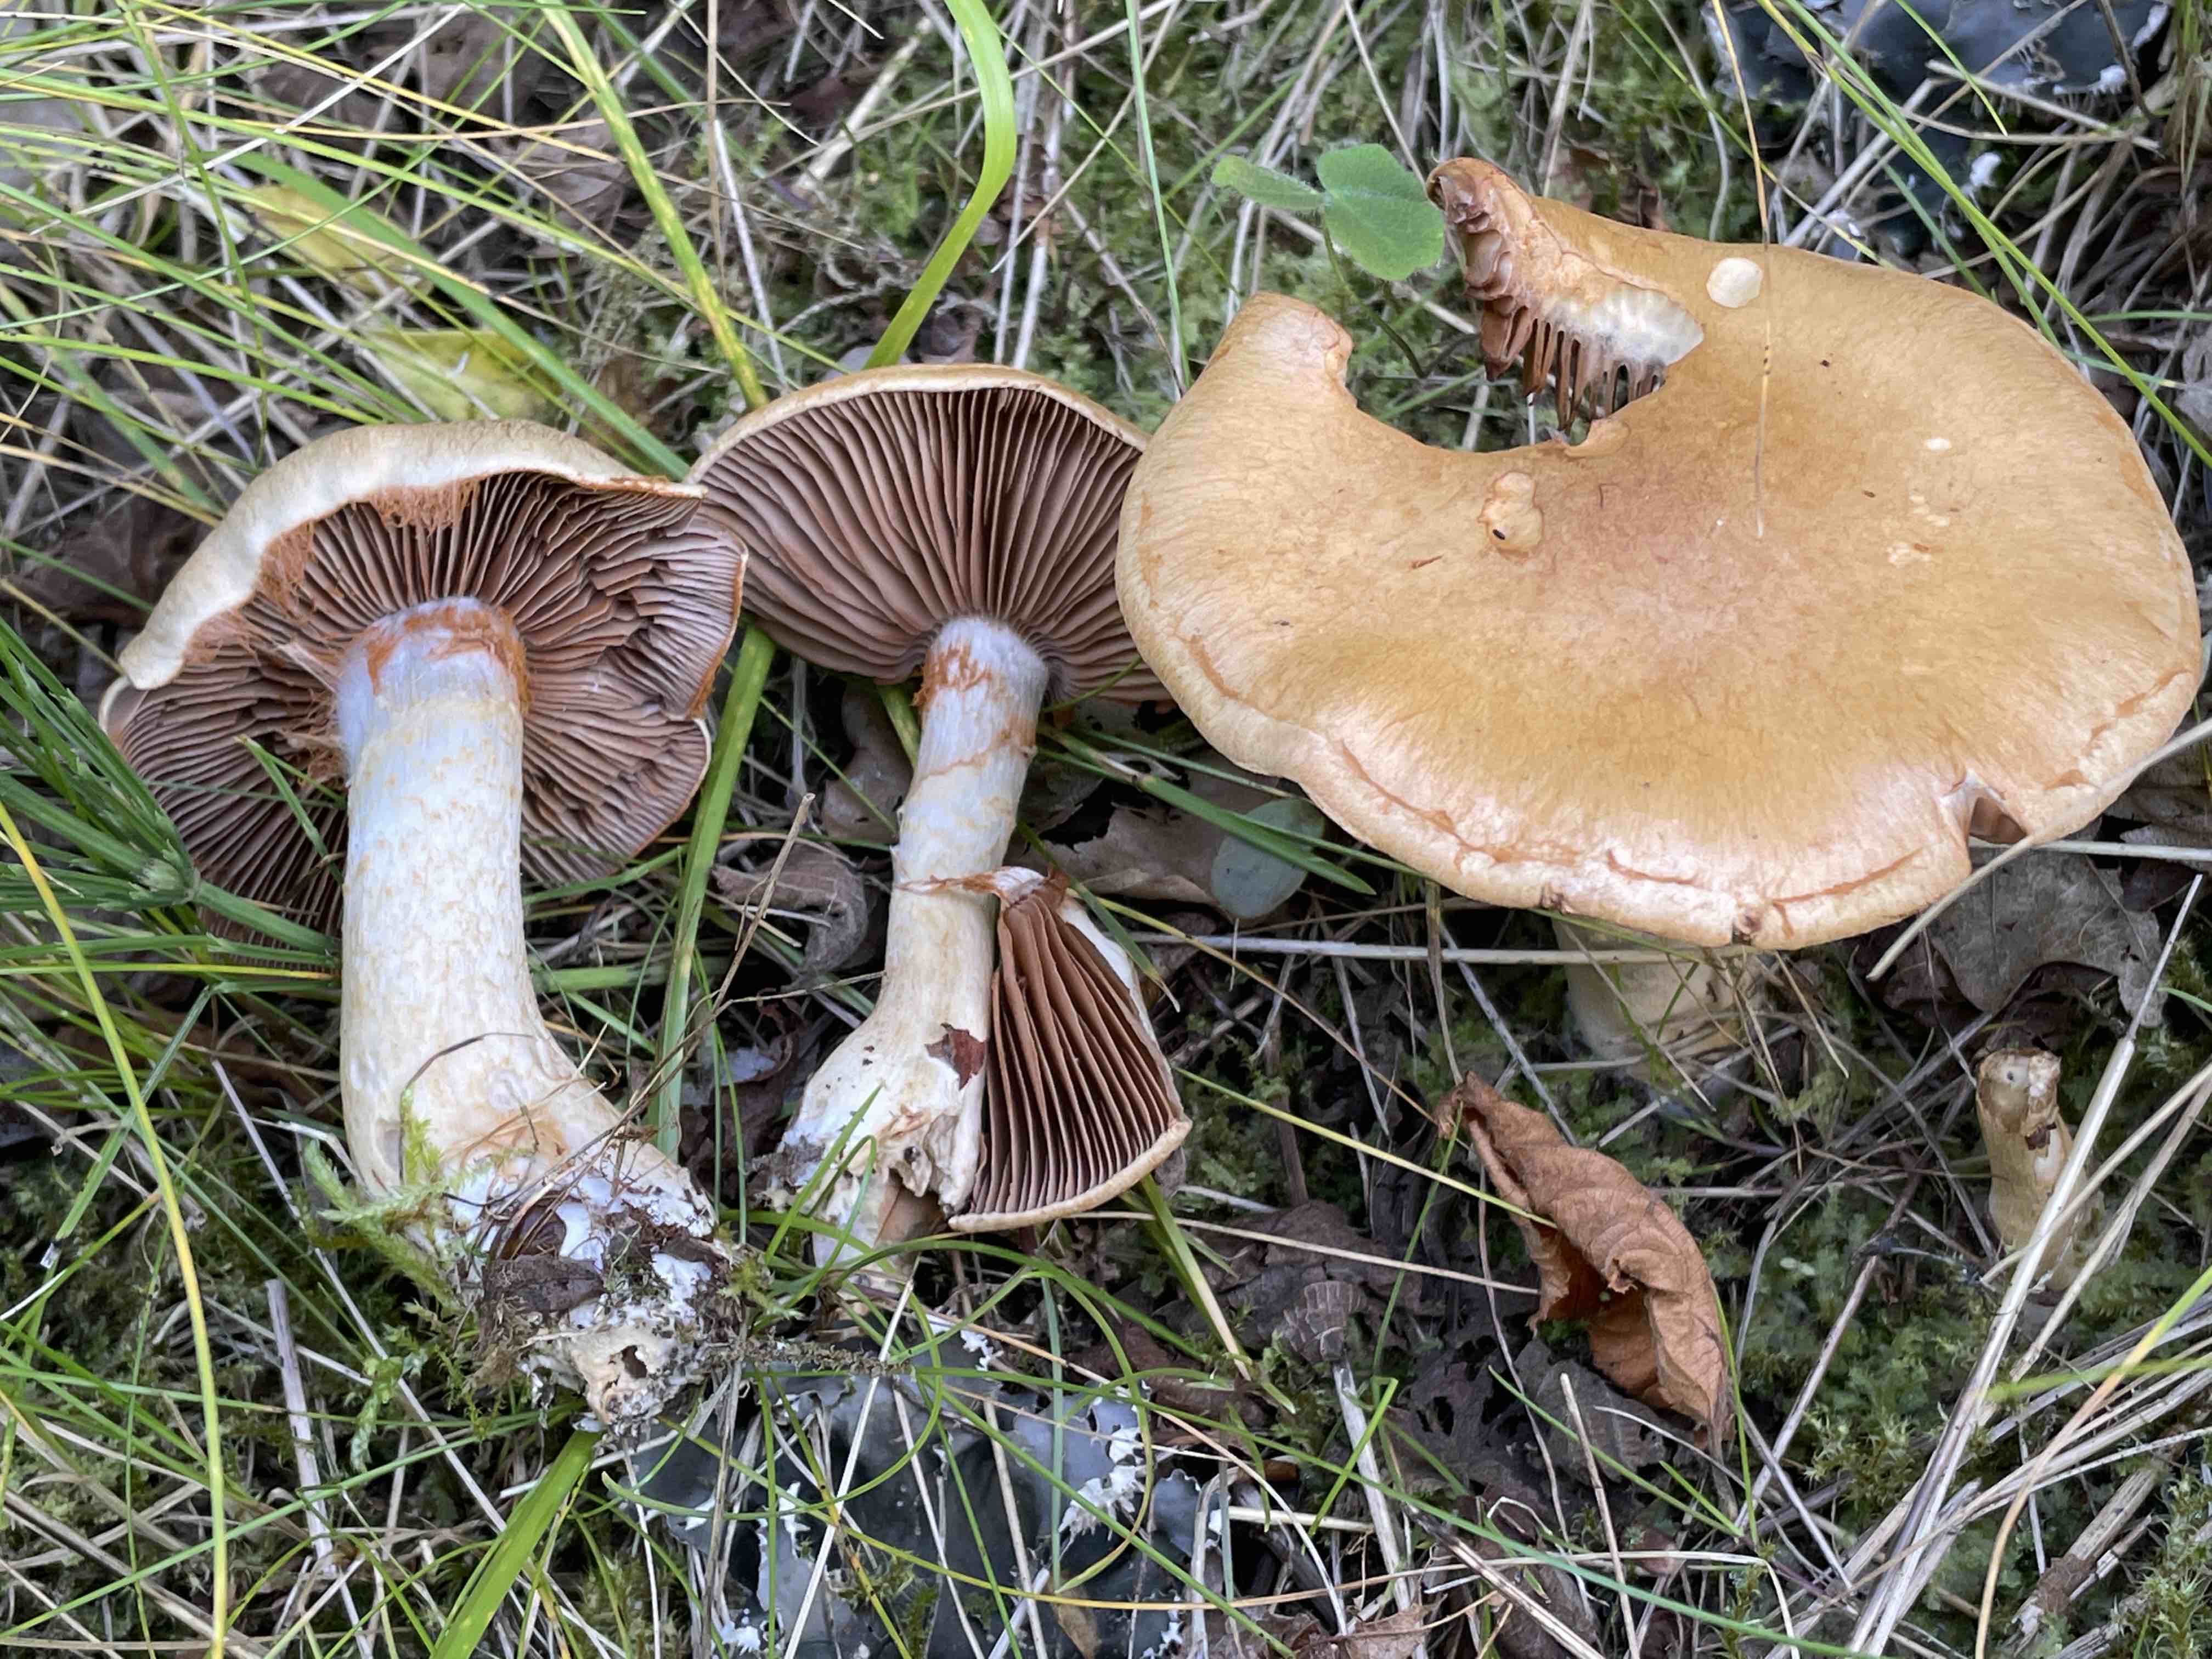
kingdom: Fungi
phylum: Basidiomycota
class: Agaricomycetes
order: Agaricales
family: Cortinariaceae
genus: Cortinarius
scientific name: Cortinarius
